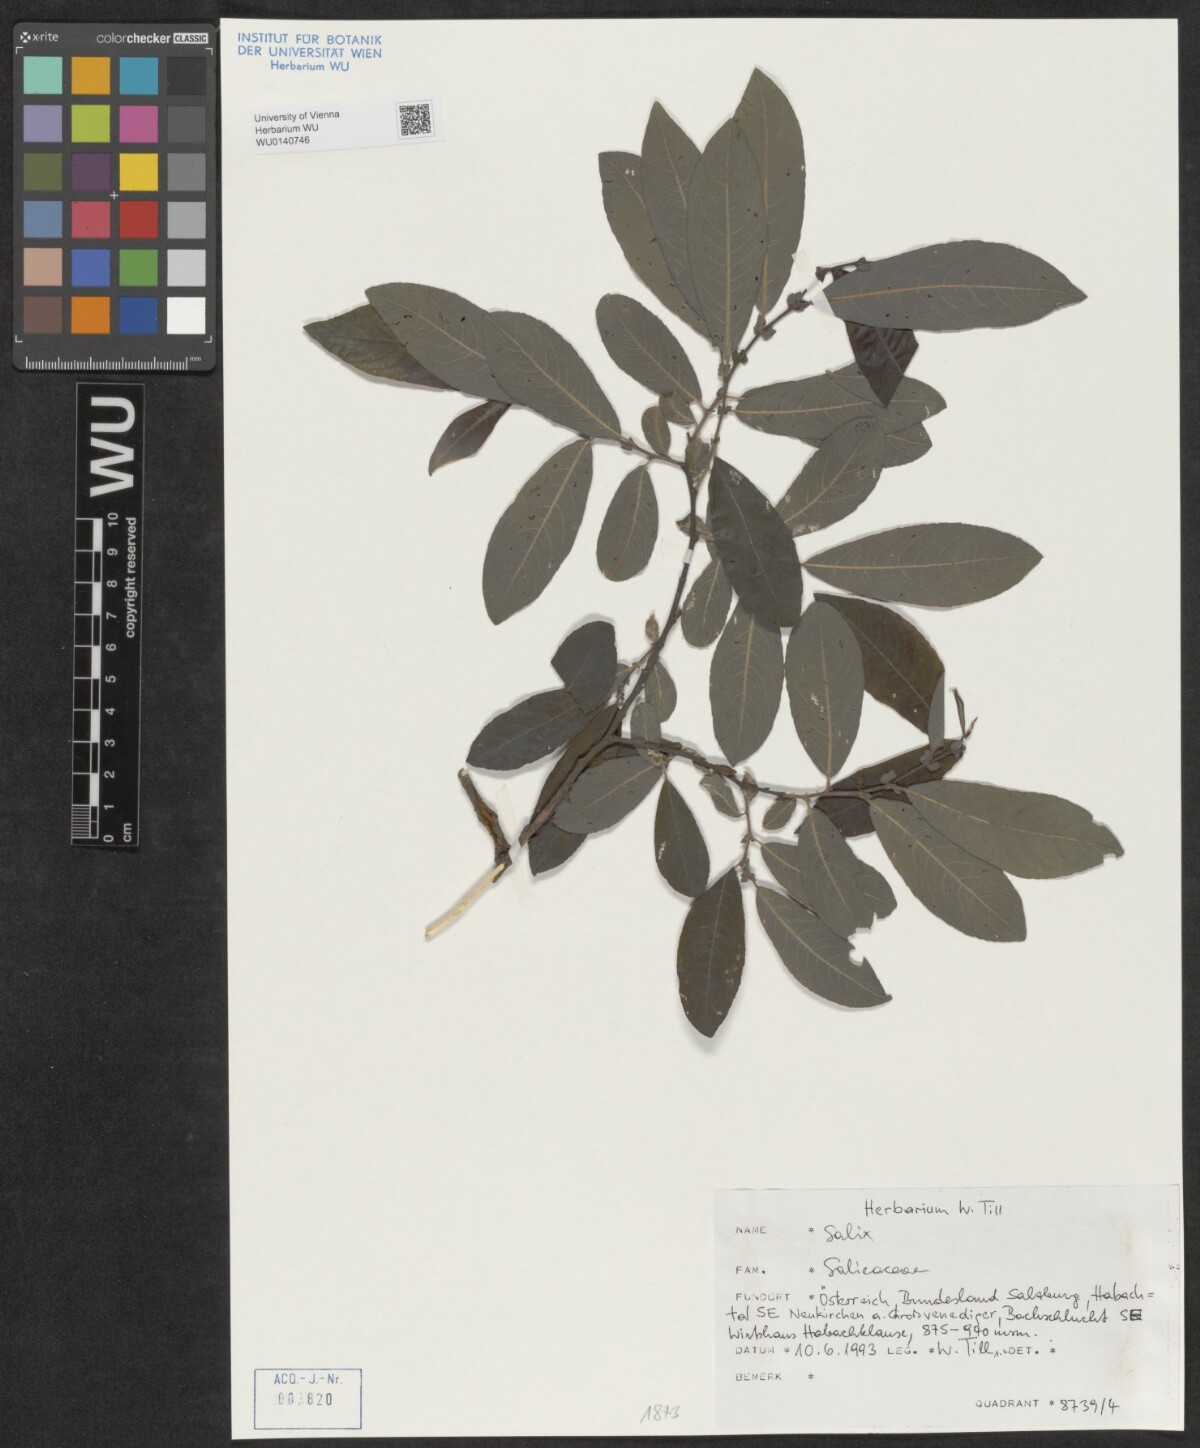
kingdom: Plantae
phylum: Tracheophyta
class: Magnoliopsida
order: Malpighiales
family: Salicaceae
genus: Salix
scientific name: Salix
